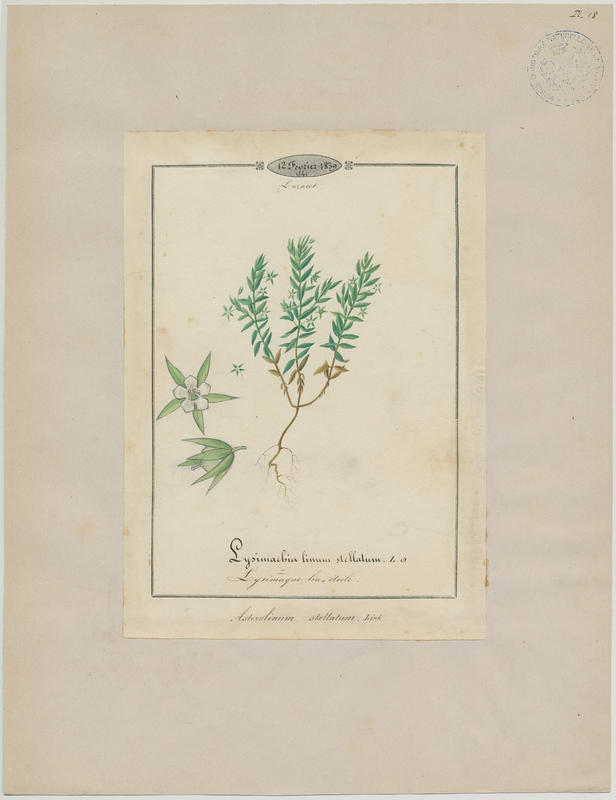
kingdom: Plantae
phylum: Tracheophyta
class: Magnoliopsida
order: Ericales
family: Primulaceae
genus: Lysimachia
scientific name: Lysimachia linum-stellatum
